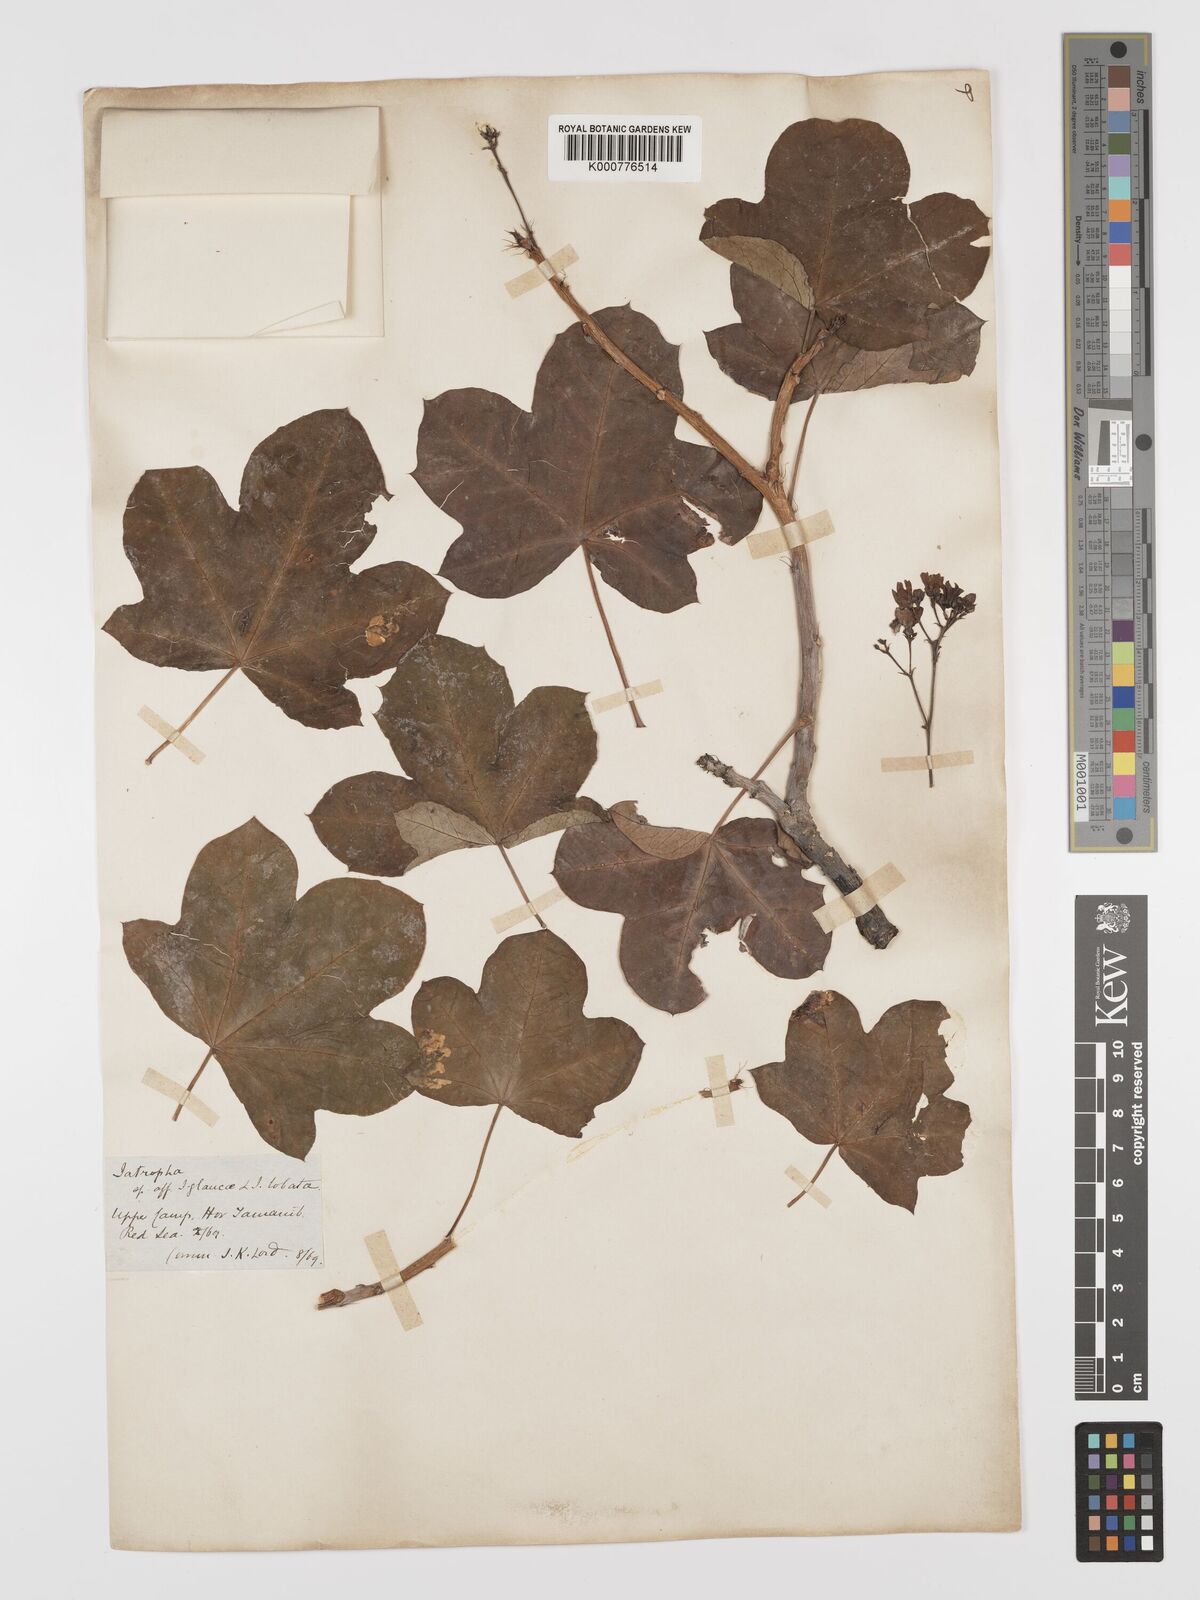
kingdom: Plantae
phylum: Tracheophyta
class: Magnoliopsida
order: Malpighiales
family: Euphorbiaceae
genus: Jatropha
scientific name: Jatropha aceroides
